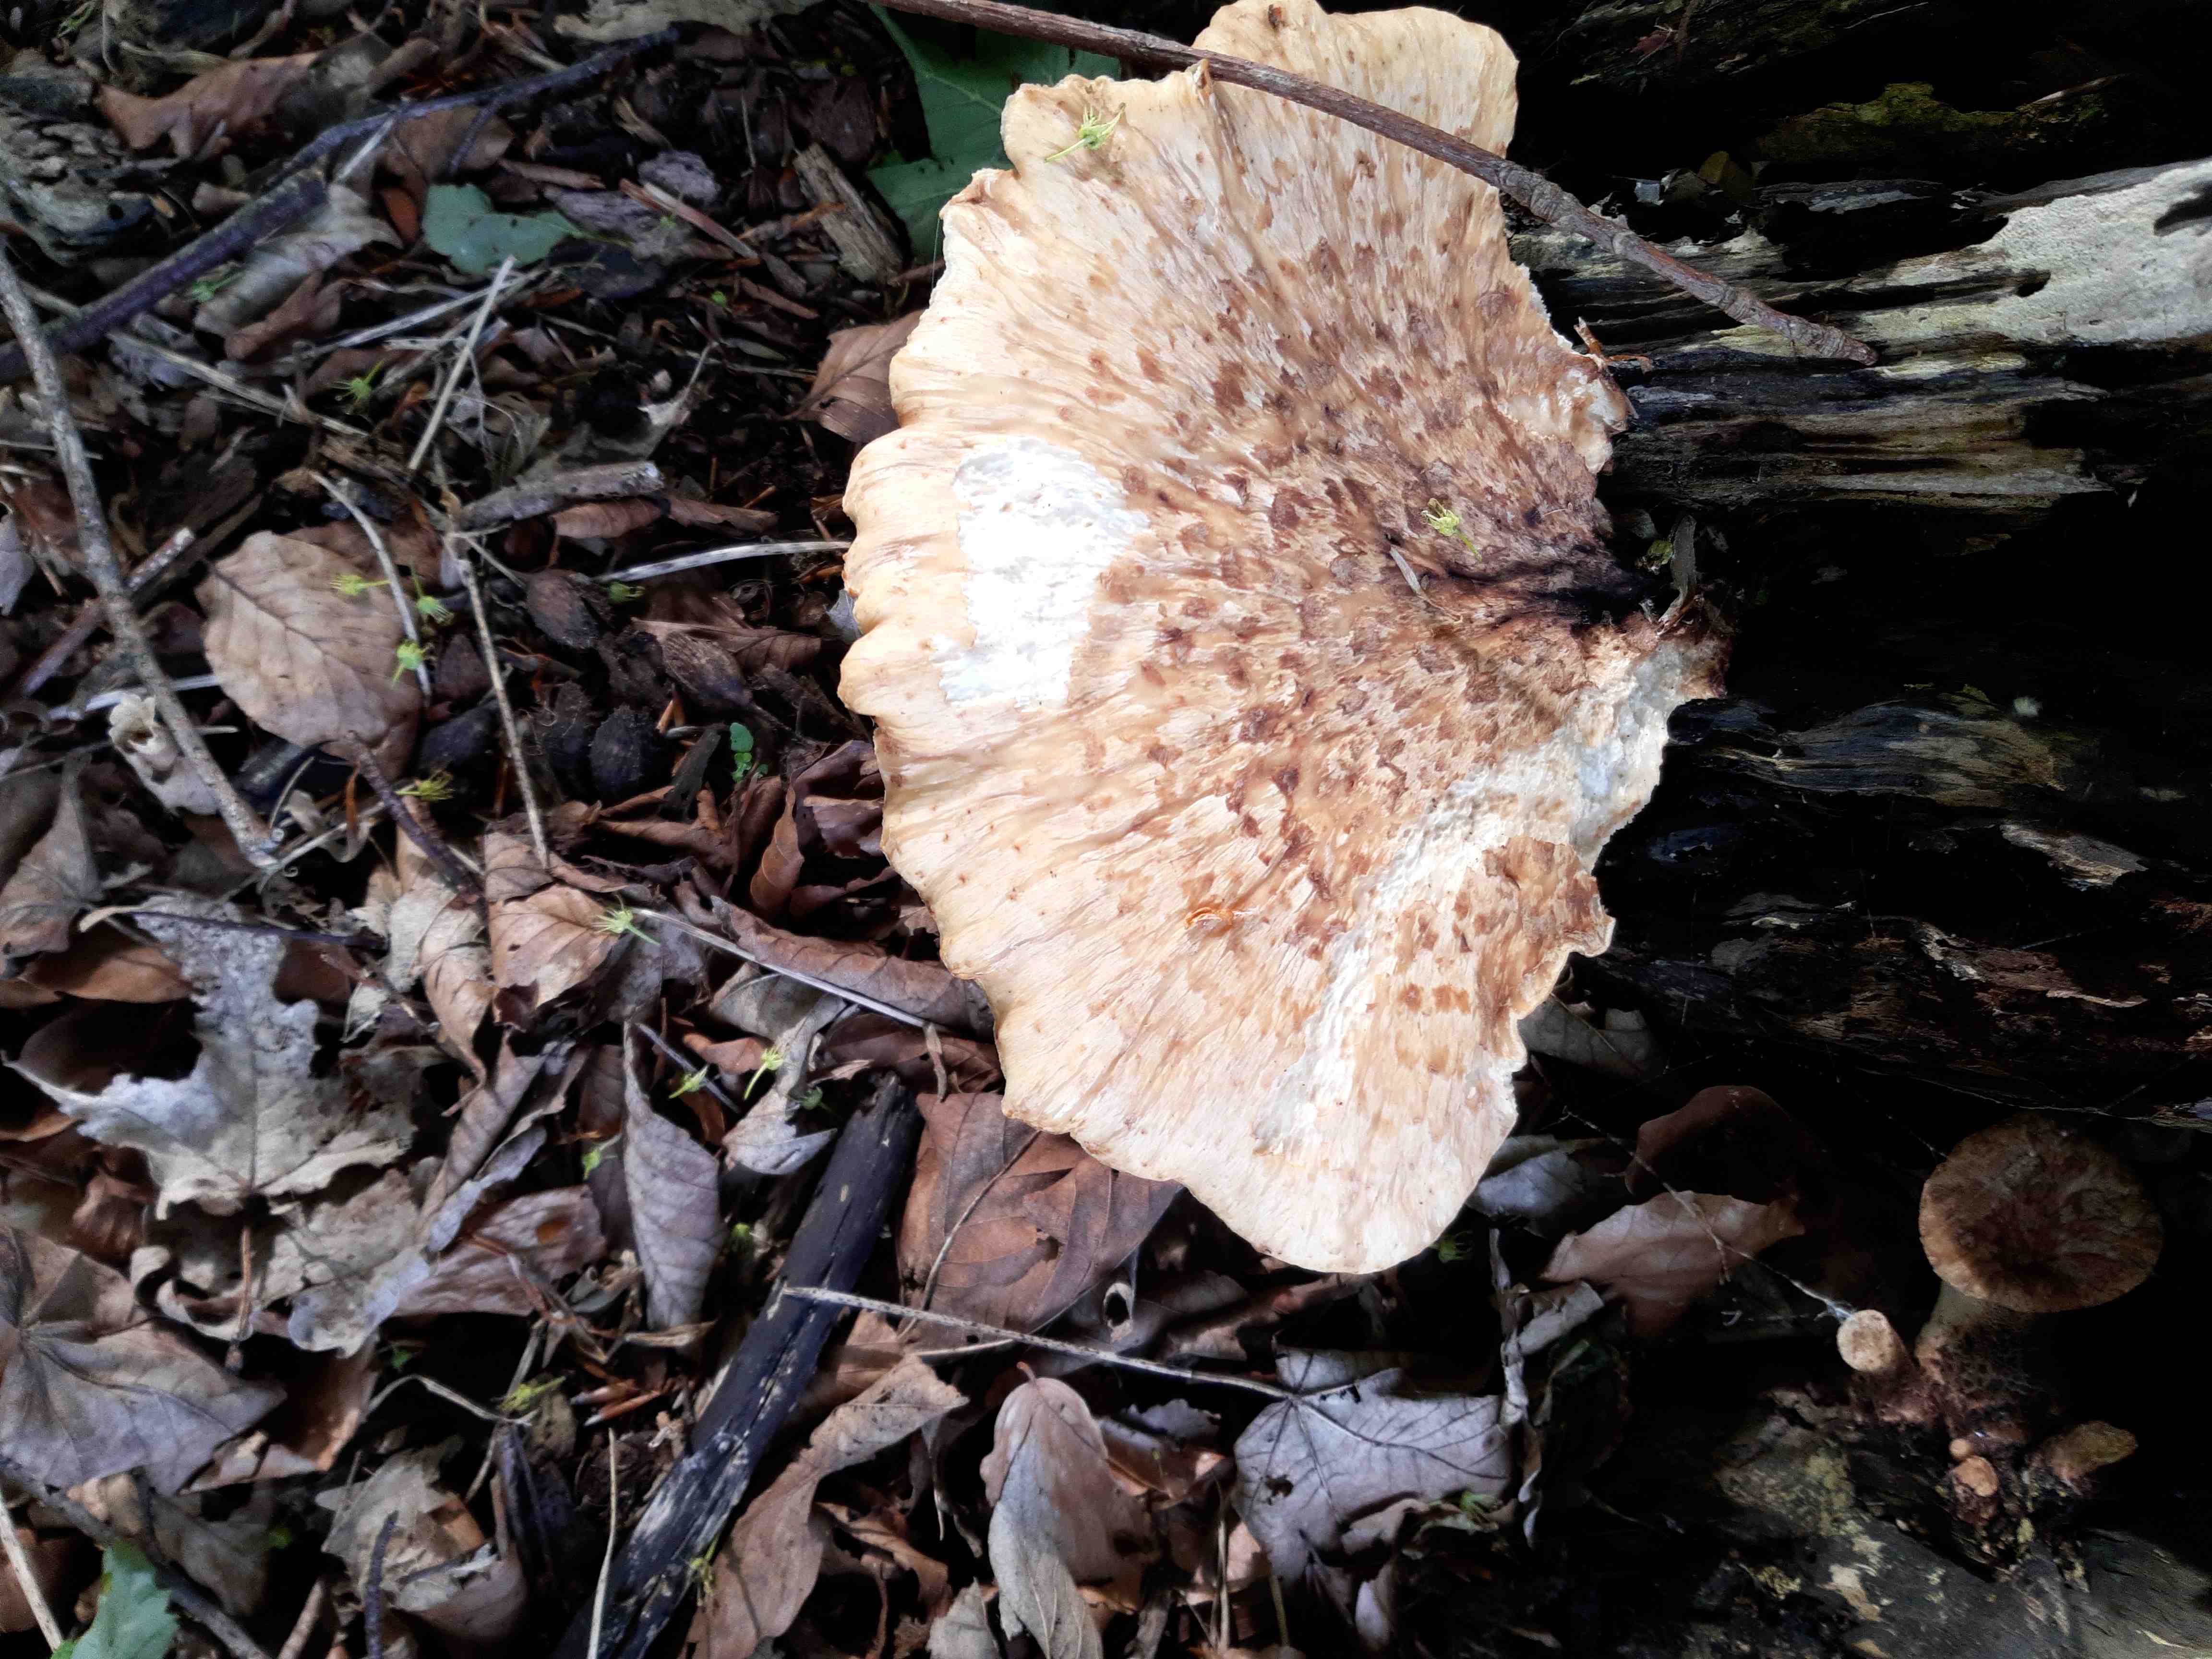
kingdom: Fungi
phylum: Basidiomycota
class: Agaricomycetes
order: Polyporales
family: Polyporaceae
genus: Cerioporus
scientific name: Cerioporus squamosus
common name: skællet stilkporesvamp
